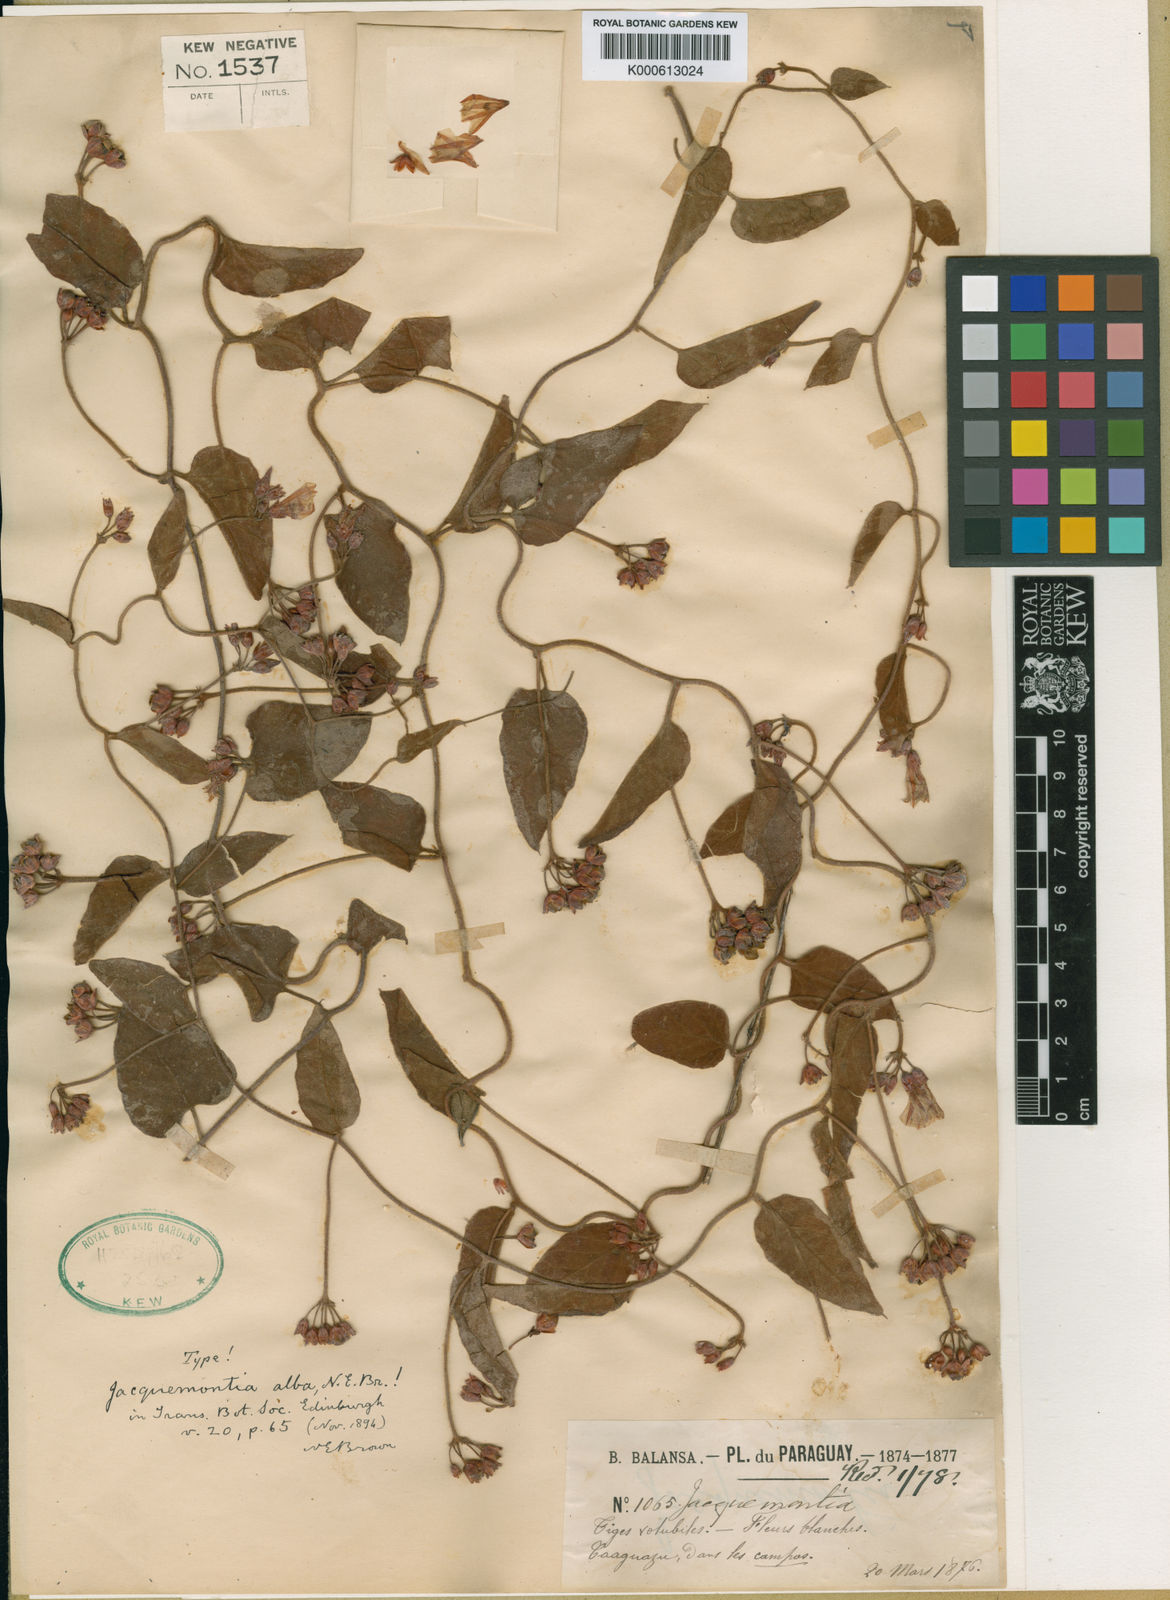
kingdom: Plantae
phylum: Tracheophyta
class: Magnoliopsida
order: Solanales
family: Convolvulaceae
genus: Jacquemontia
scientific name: Jacquemontia martii
